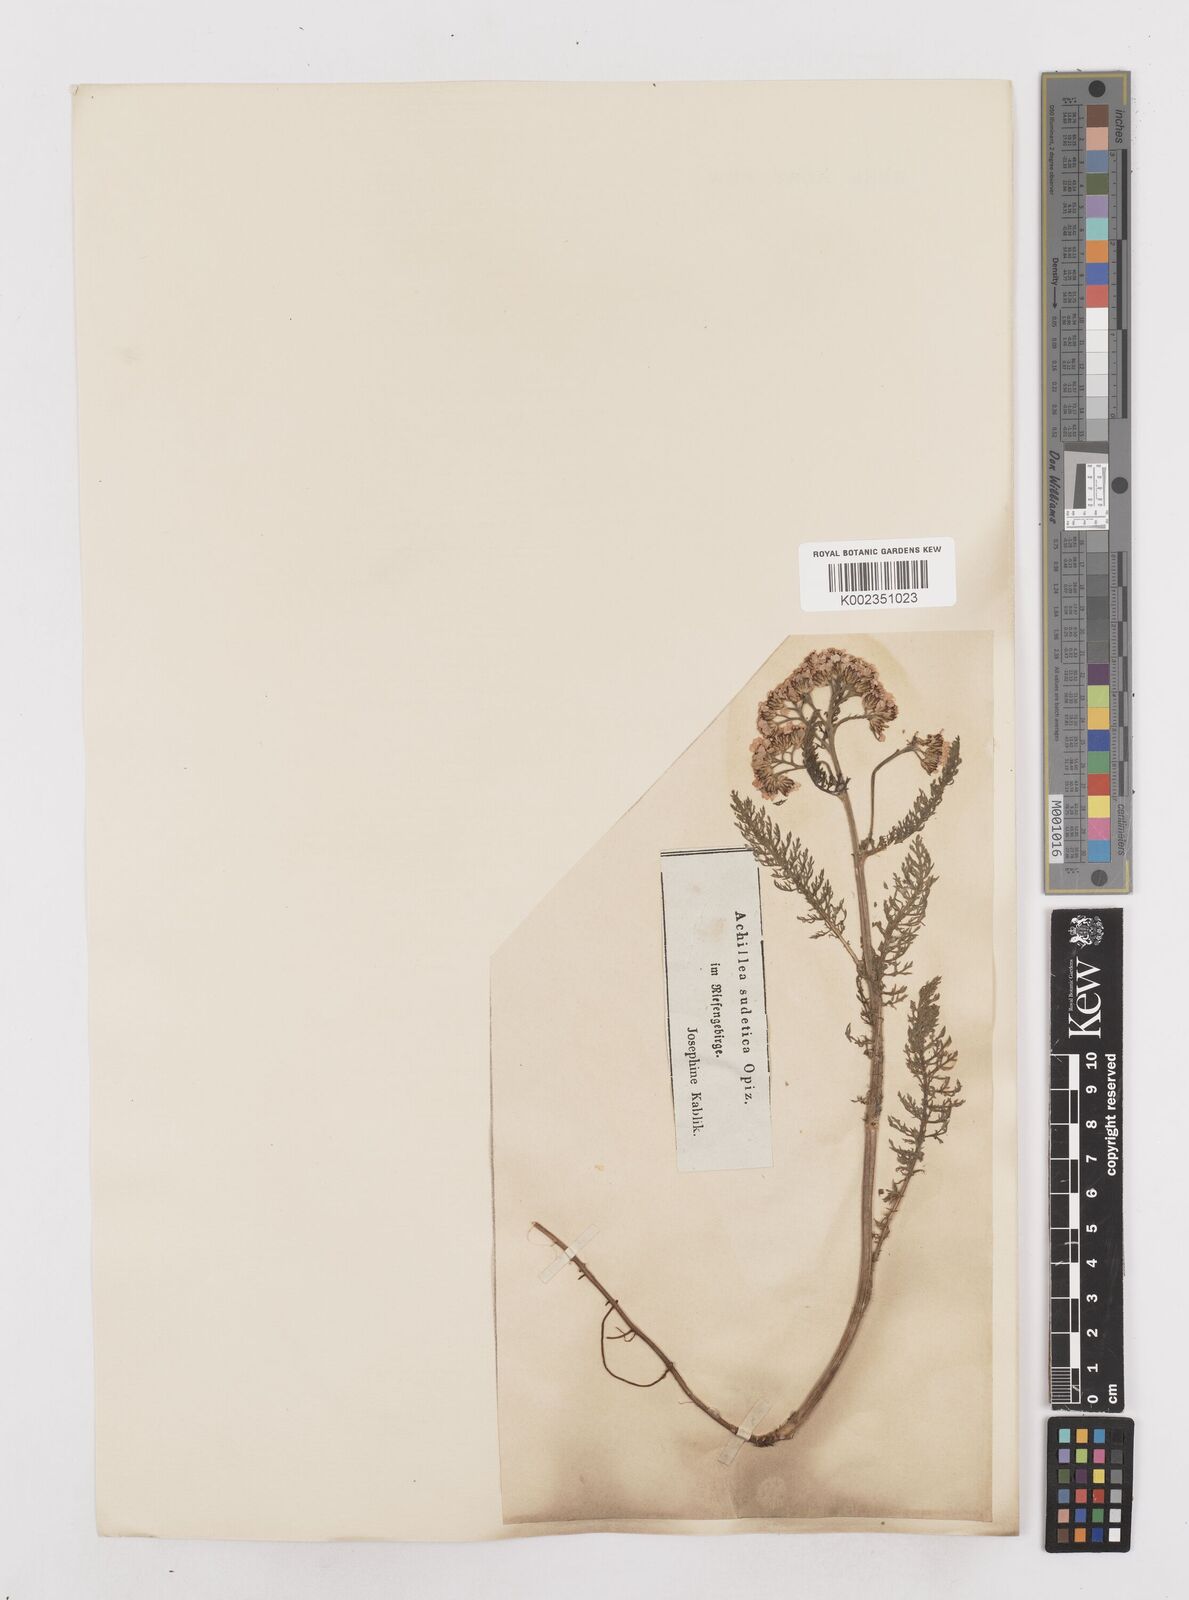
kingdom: Plantae
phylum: Tracheophyta
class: Magnoliopsida
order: Asterales
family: Asteraceae
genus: Achillea
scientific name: Achillea millefolium
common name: Yarrow
